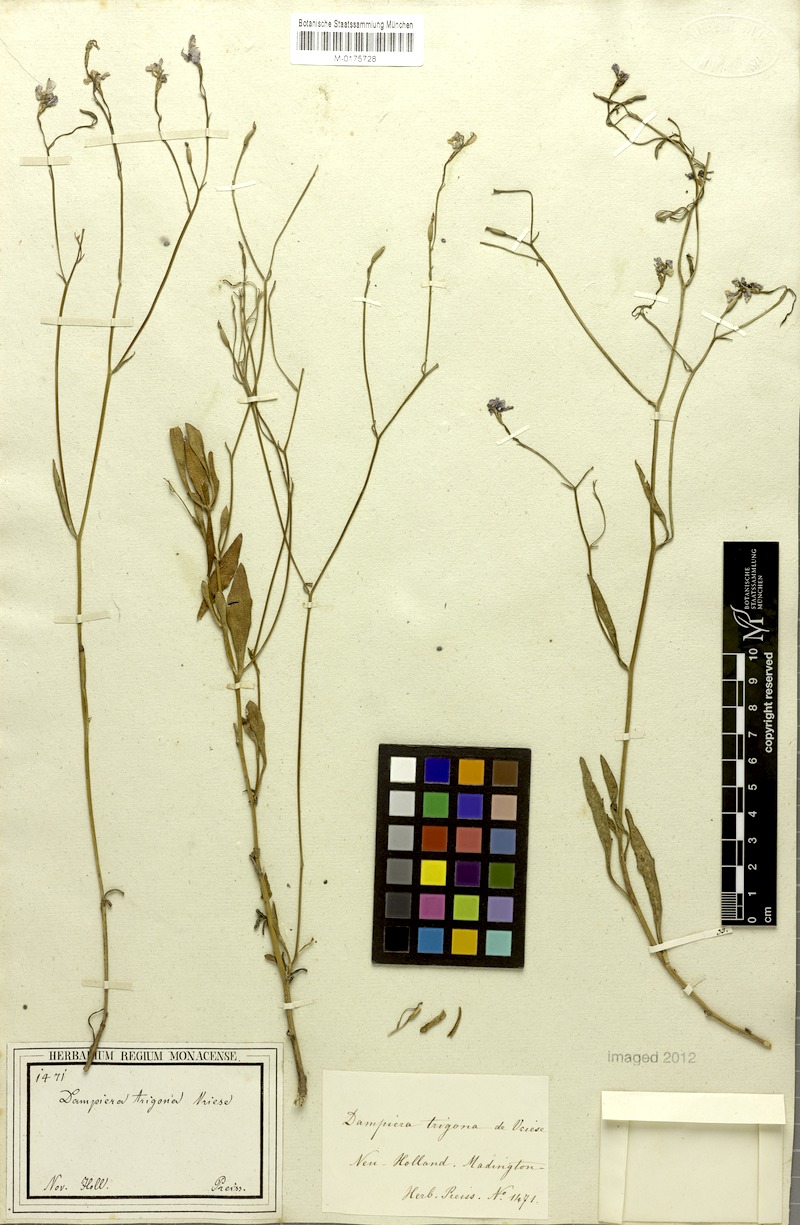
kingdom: Plantae
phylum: Tracheophyta
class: Magnoliopsida
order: Asterales
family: Goodeniaceae
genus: Dampiera
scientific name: Dampiera trigona
